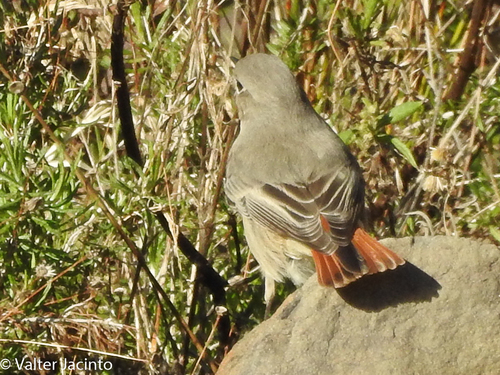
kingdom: Animalia
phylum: Chordata
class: Aves
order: Passeriformes
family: Muscicapidae
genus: Phoenicurus
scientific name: Phoenicurus ochruros
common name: Black redstart
